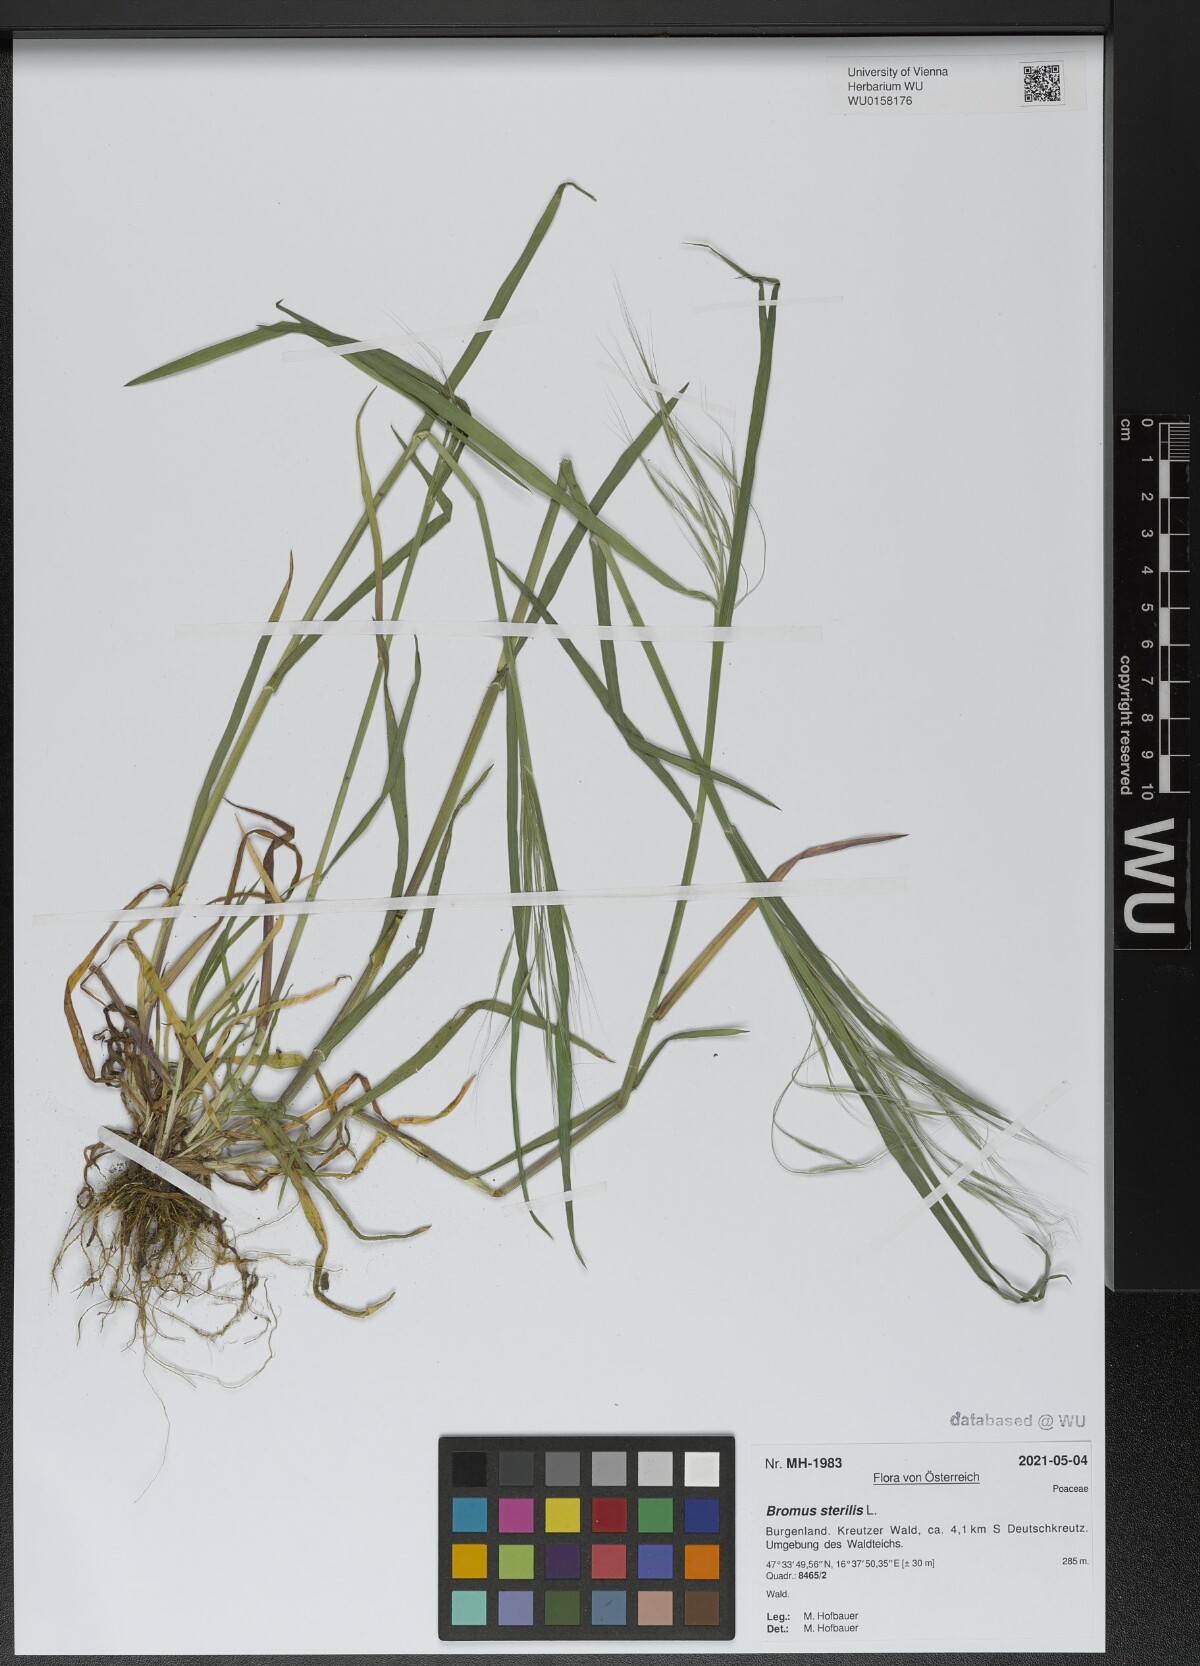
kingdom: Plantae
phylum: Tracheophyta
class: Liliopsida
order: Poales
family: Poaceae
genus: Bromus
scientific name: Bromus sterilis
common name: Poverty brome
